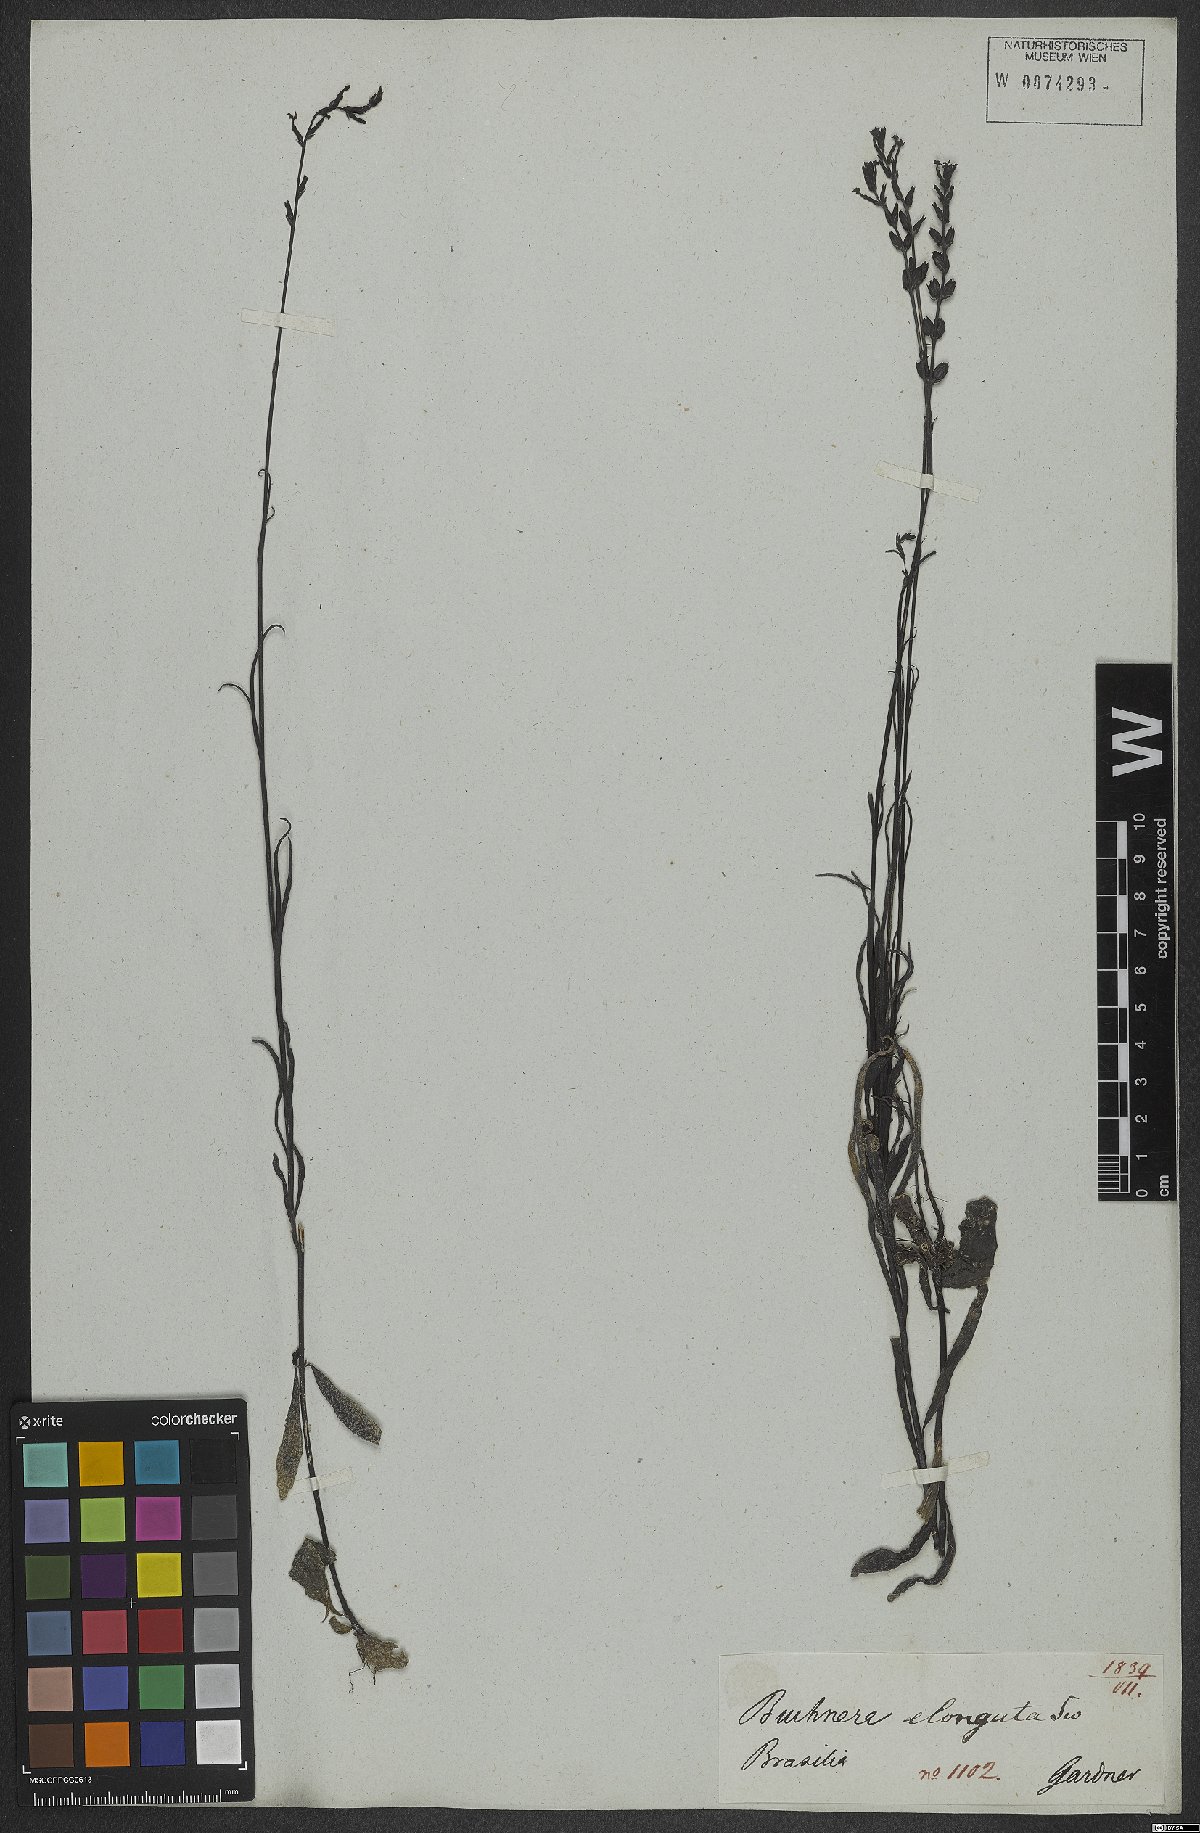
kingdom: Plantae
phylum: Tracheophyta
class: Magnoliopsida
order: Lamiales
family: Orobanchaceae
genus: Buchnera
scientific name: Buchnera
